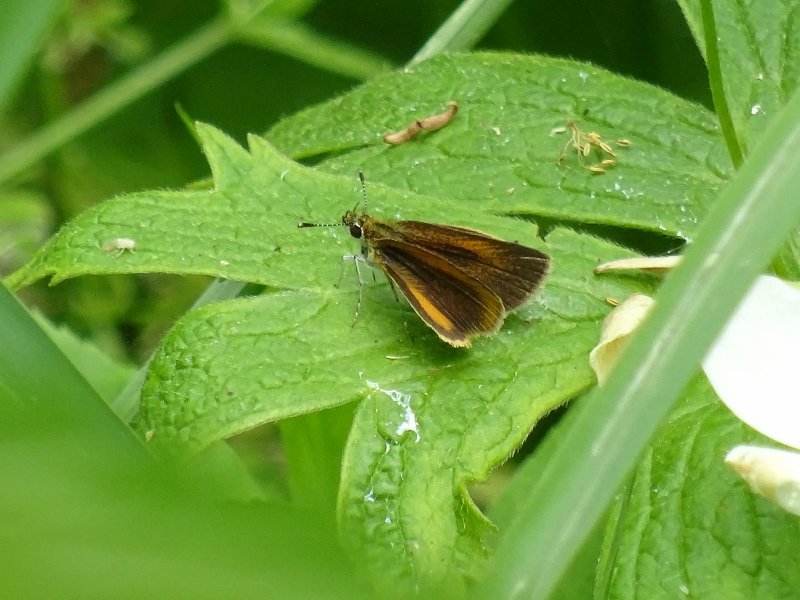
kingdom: Animalia
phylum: Arthropoda
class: Insecta
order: Lepidoptera
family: Hesperiidae
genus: Ancyloxypha
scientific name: Ancyloxypha numitor
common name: Least Skipper
